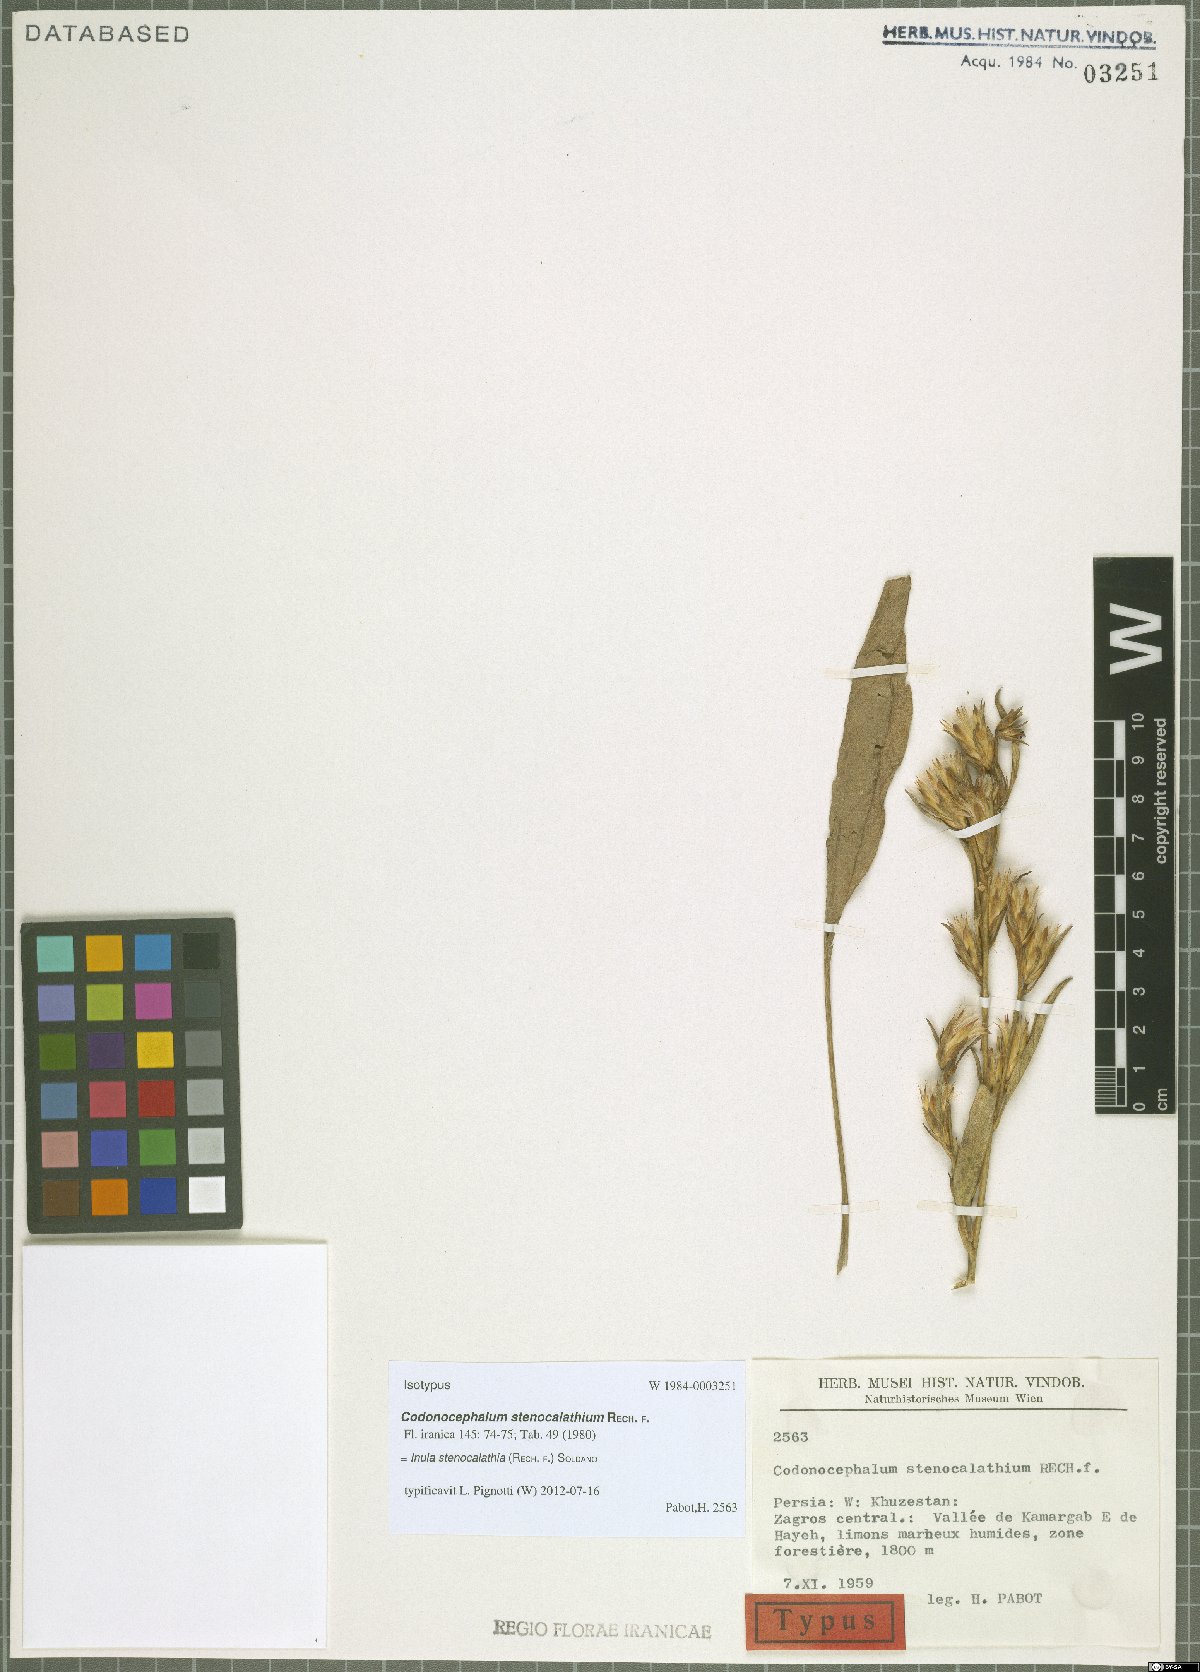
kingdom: Plantae
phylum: Tracheophyta
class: Magnoliopsida
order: Asterales
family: Asteraceae
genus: Inula
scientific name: Inula stenocalathia
